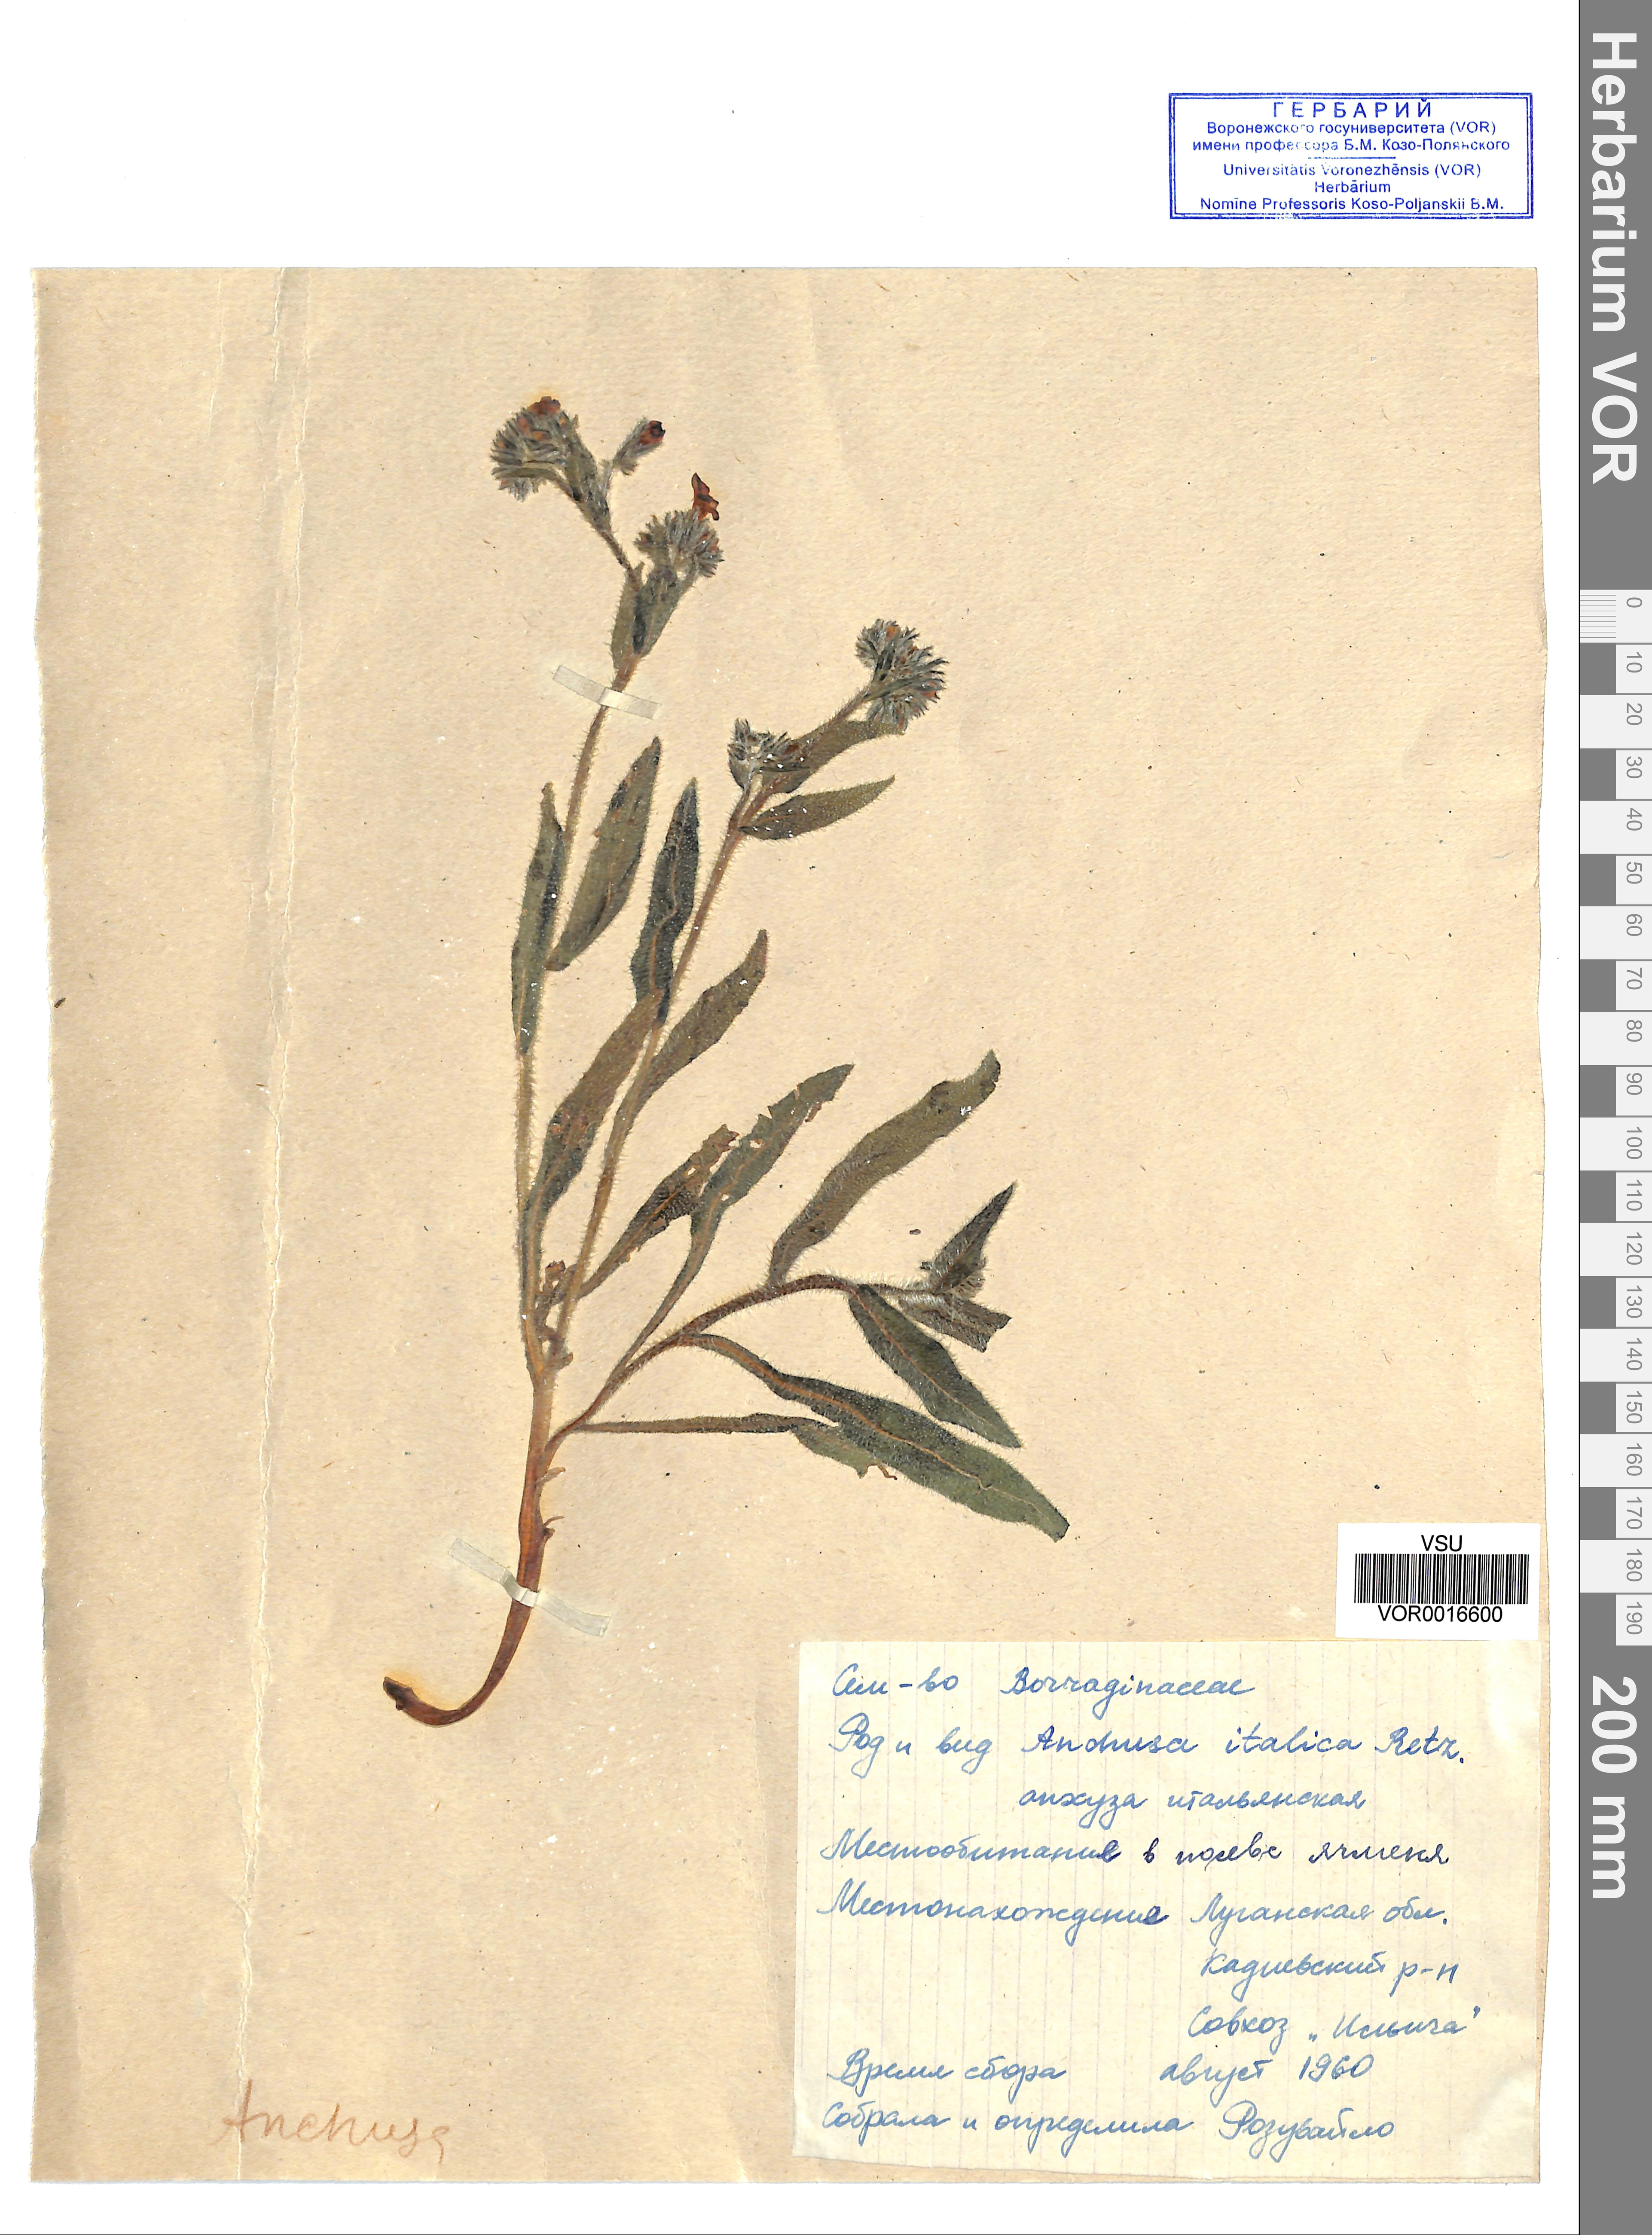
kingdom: Plantae
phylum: Tracheophyta
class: Magnoliopsida
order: Boraginales
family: Boraginaceae
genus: Anchusa
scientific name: Anchusa azurea
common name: Garden anchusa
